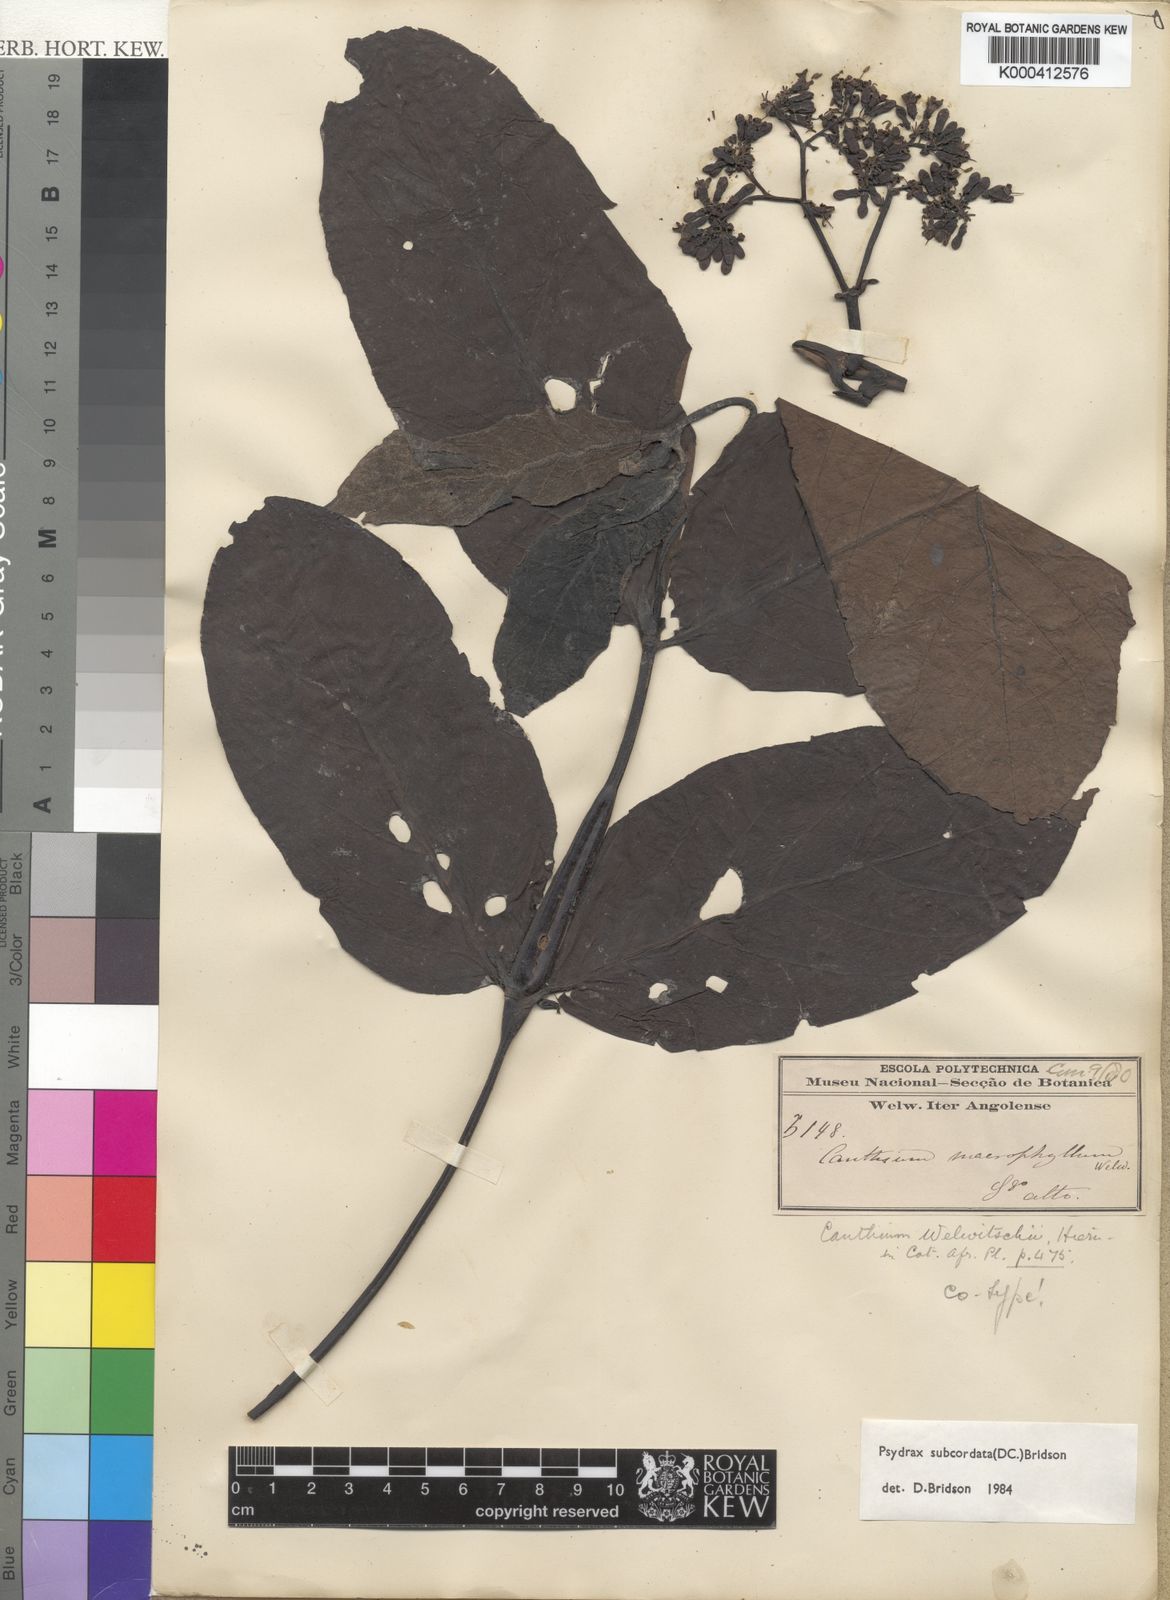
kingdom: Plantae
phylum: Tracheophyta
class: Magnoliopsida
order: Gentianales
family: Rubiaceae
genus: Psydrax
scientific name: Psydrax subcordatus
